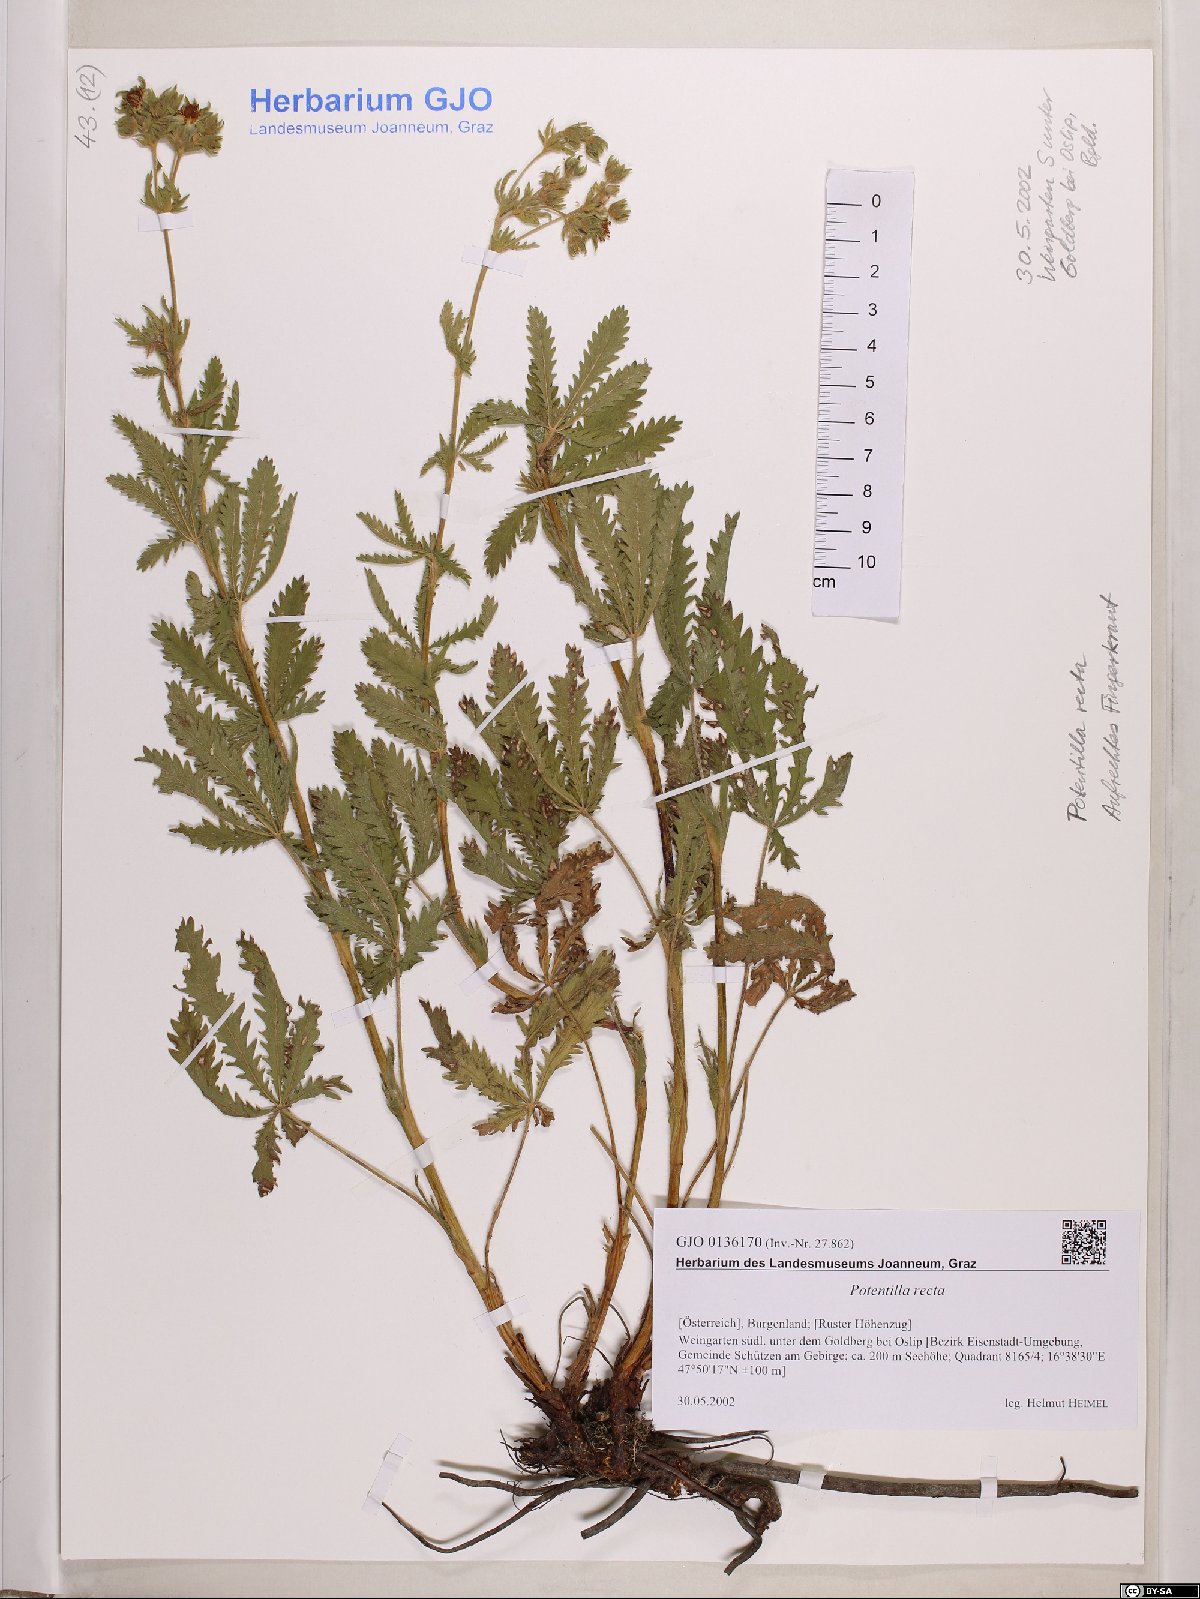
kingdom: Plantae
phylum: Tracheophyta
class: Magnoliopsida
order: Rosales
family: Rosaceae
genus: Potentilla
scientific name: Potentilla recta
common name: Sulphur cinquefoil
